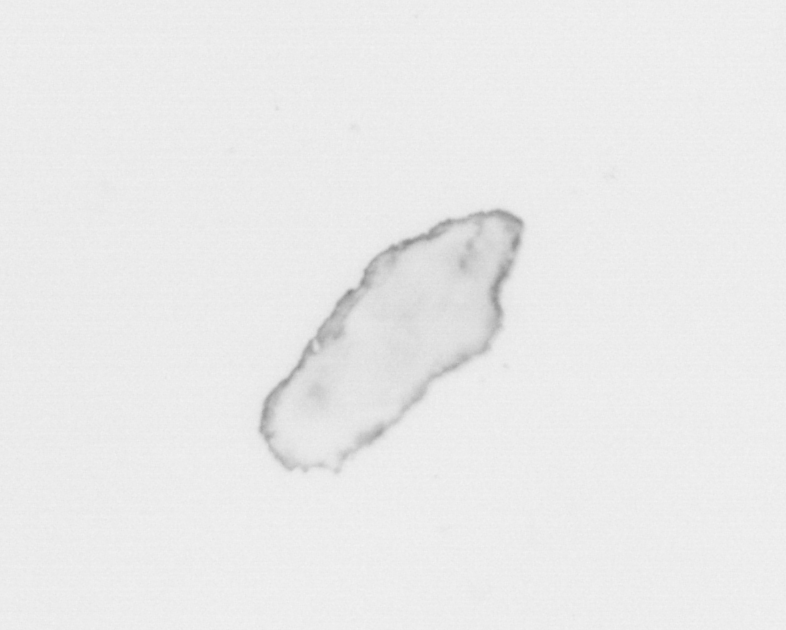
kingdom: Chromista
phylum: Ochrophyta
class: Bacillariophyceae
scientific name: Bacillariophyceae
